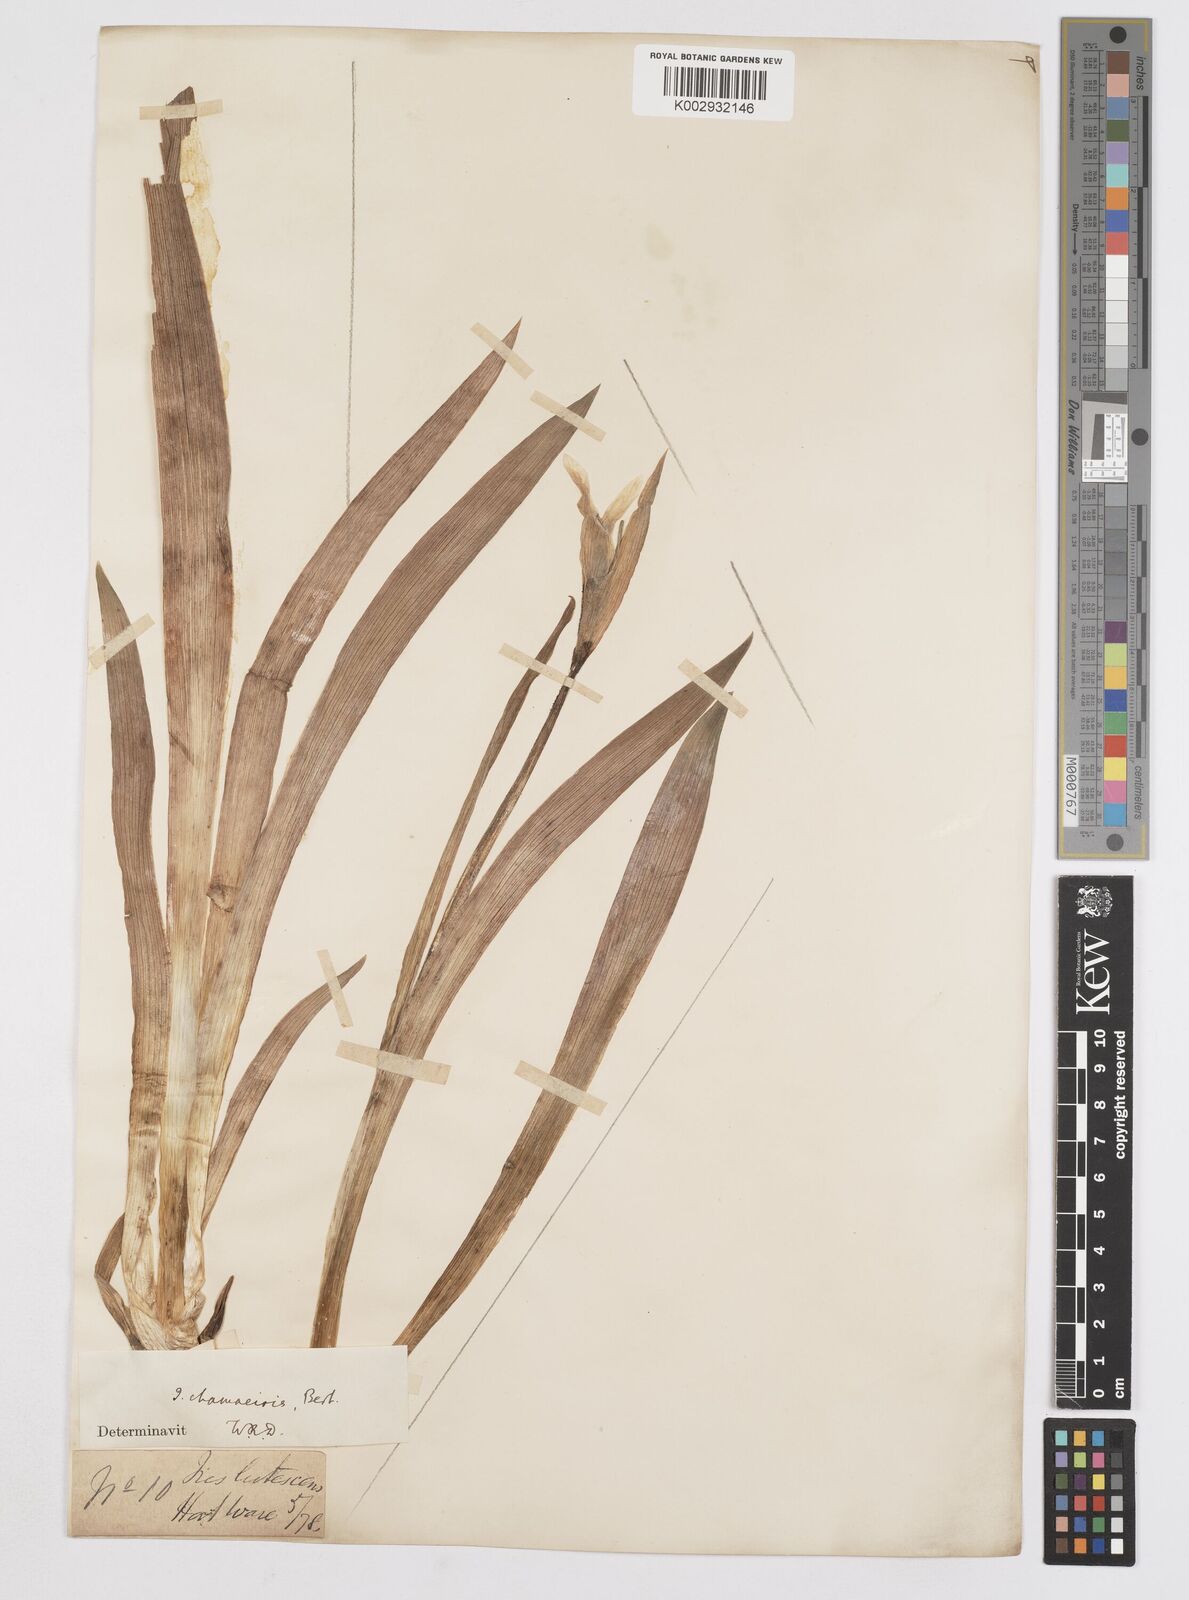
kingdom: Plantae
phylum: Tracheophyta
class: Liliopsida
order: Asparagales
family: Iridaceae
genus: Iris
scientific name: Iris lutescens
